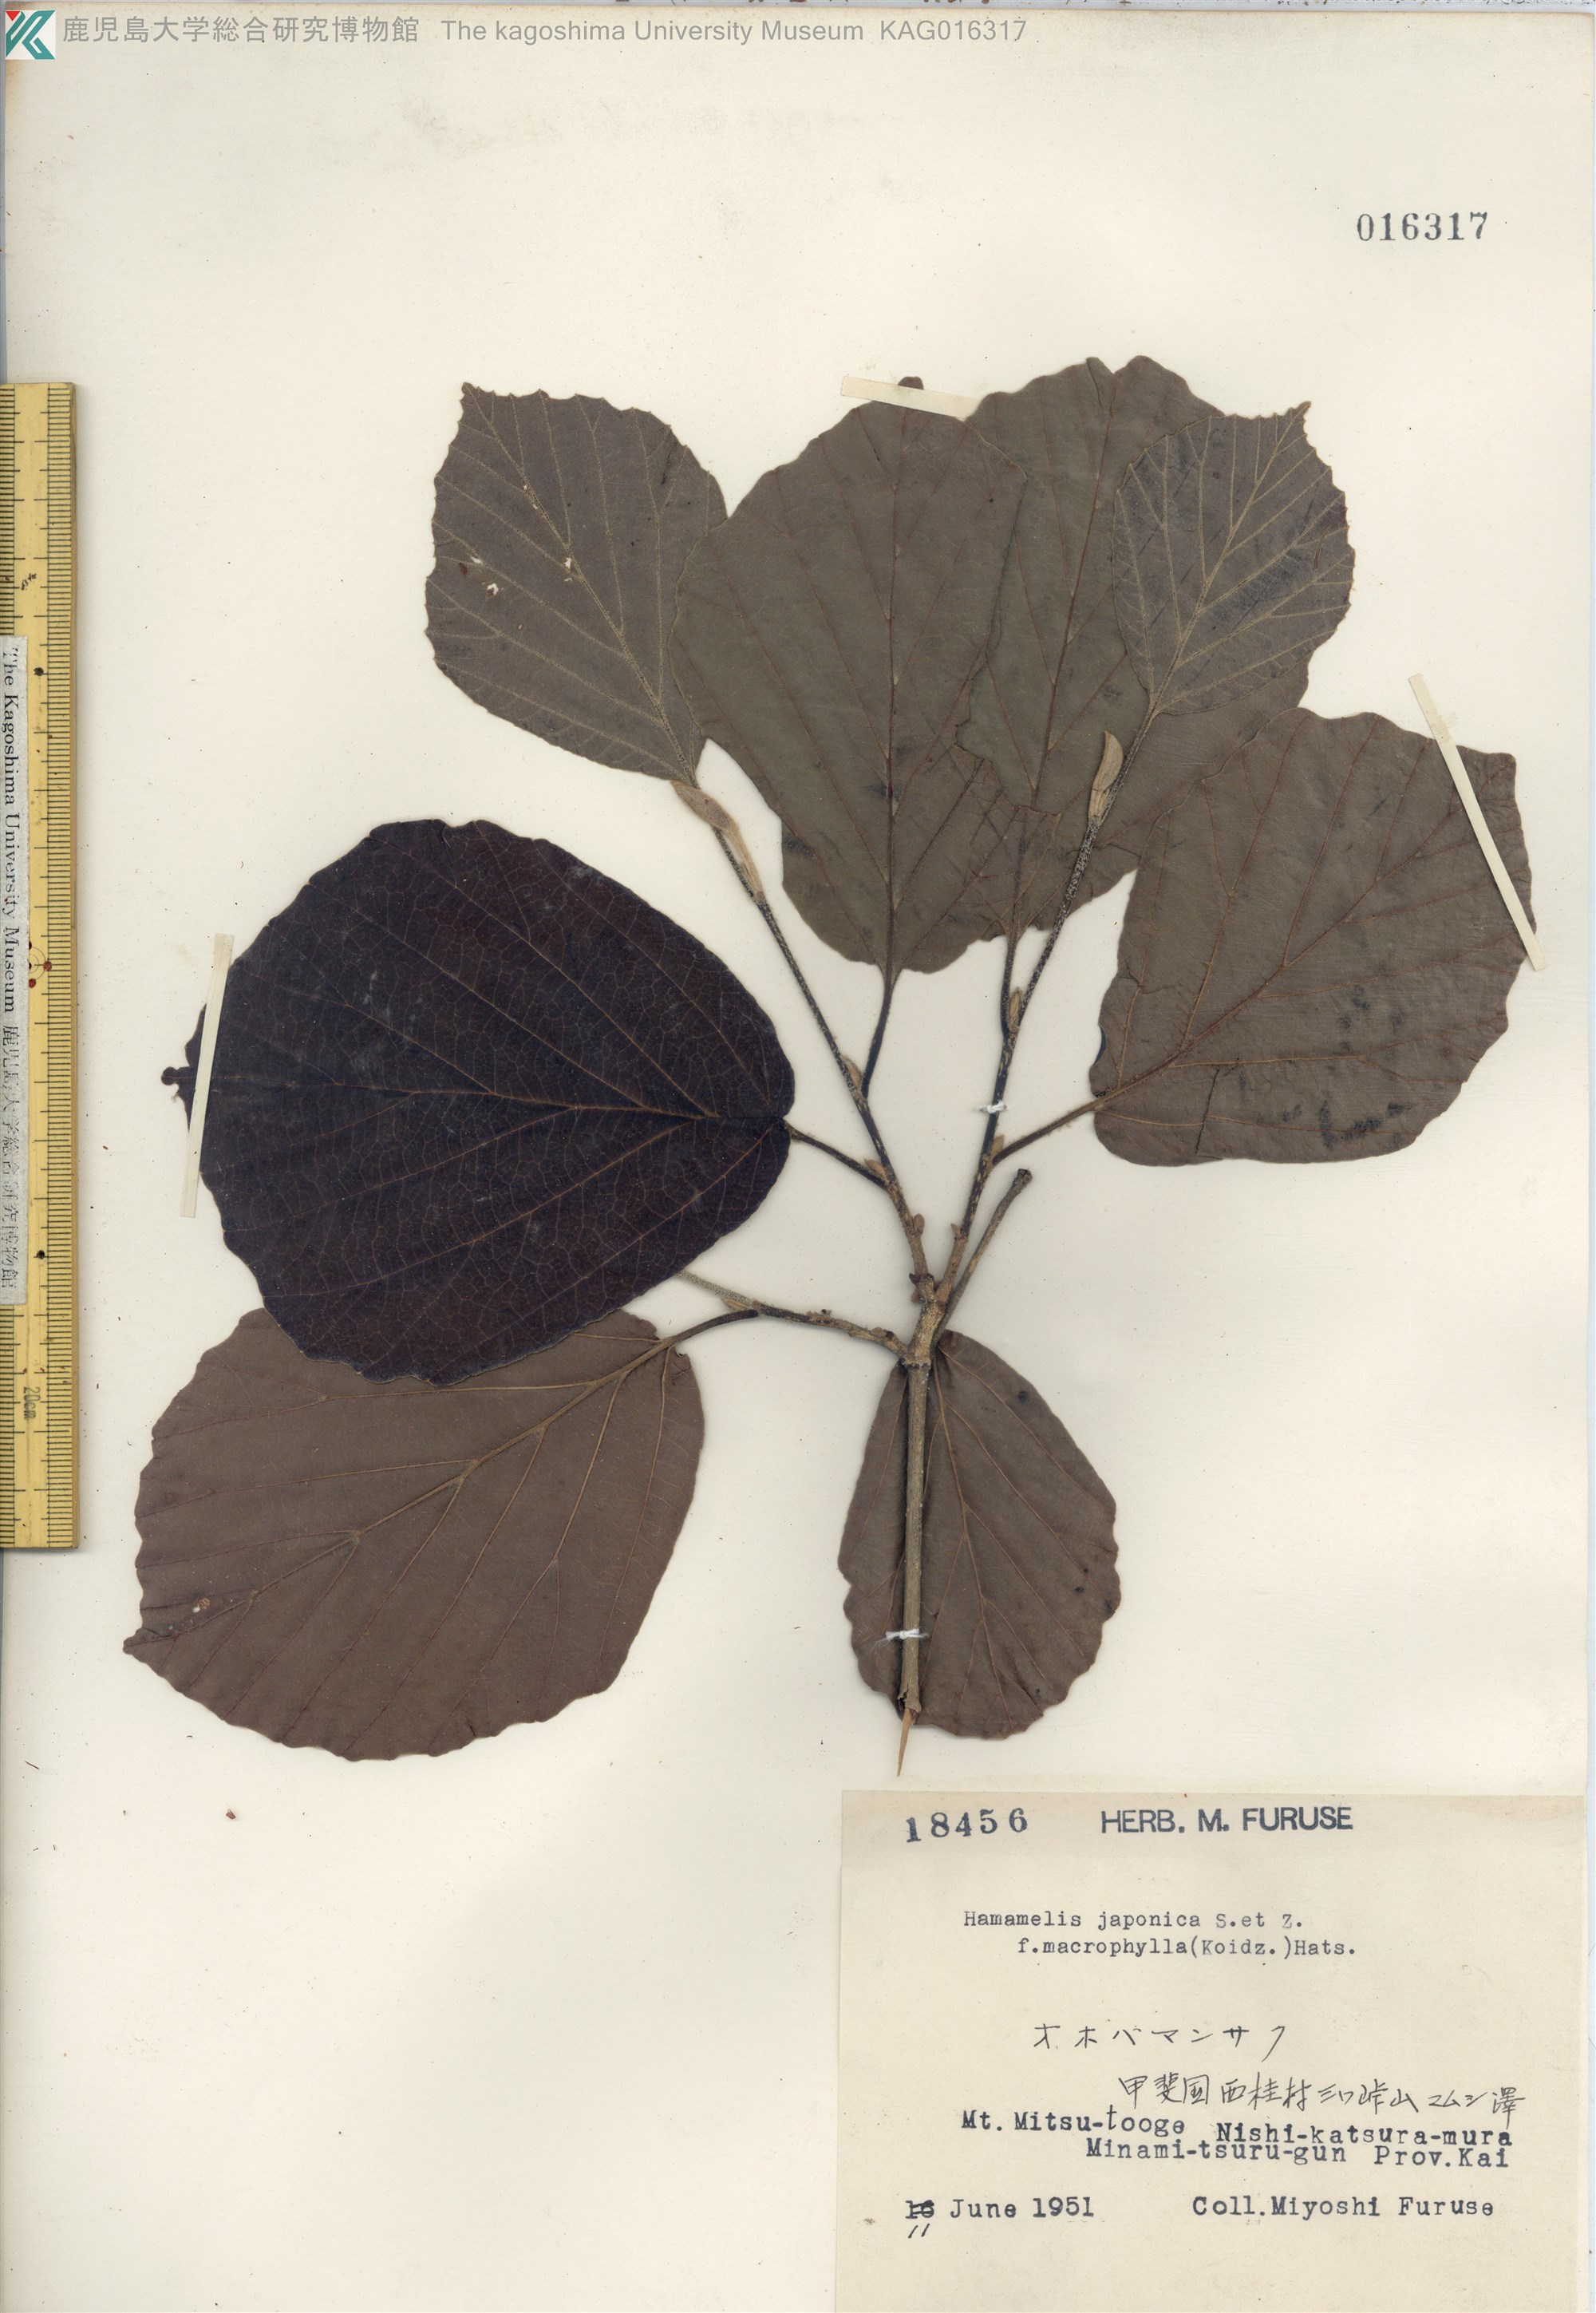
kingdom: Plantae
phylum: Tracheophyta
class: Magnoliopsida
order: Saxifragales
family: Hamamelidaceae
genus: Hamamelis
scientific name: Hamamelis japonica
